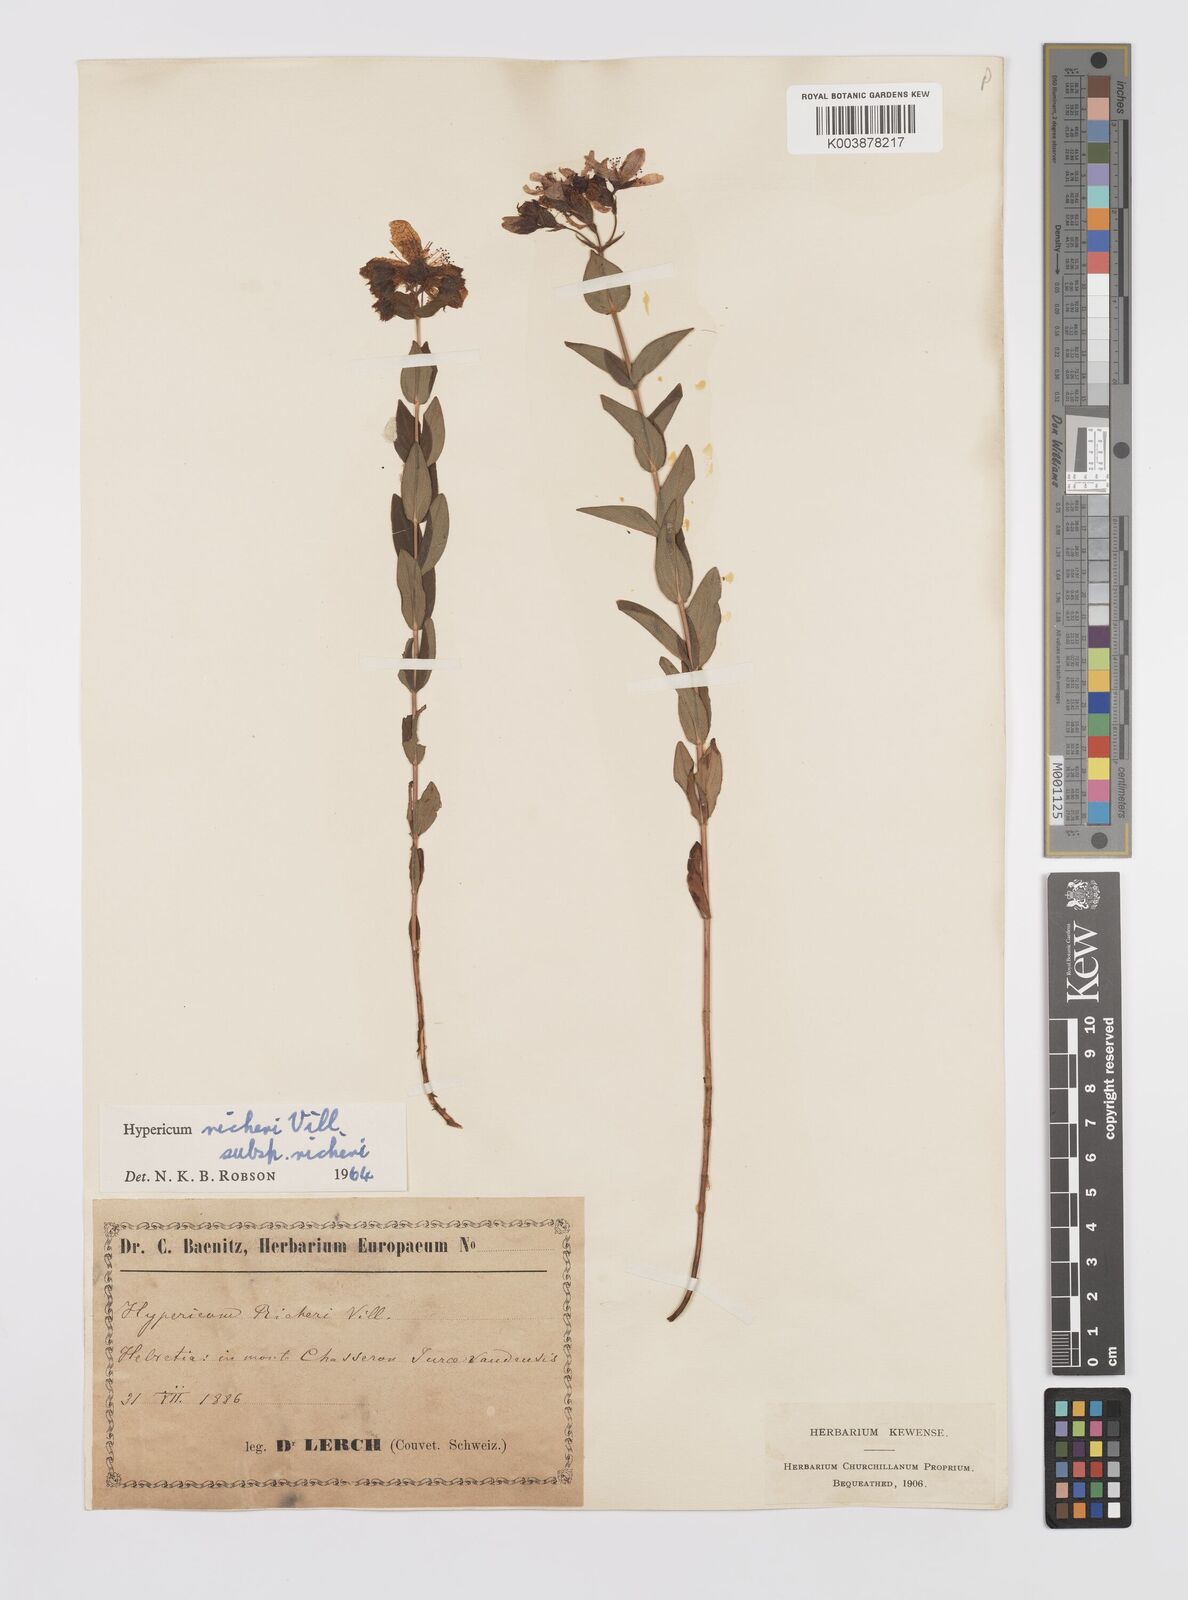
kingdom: Plantae
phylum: Tracheophyta
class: Magnoliopsida
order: Malpighiales
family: Hypericaceae
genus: Hypericum
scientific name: Hypericum richeri
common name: Alpine st john's-wort
